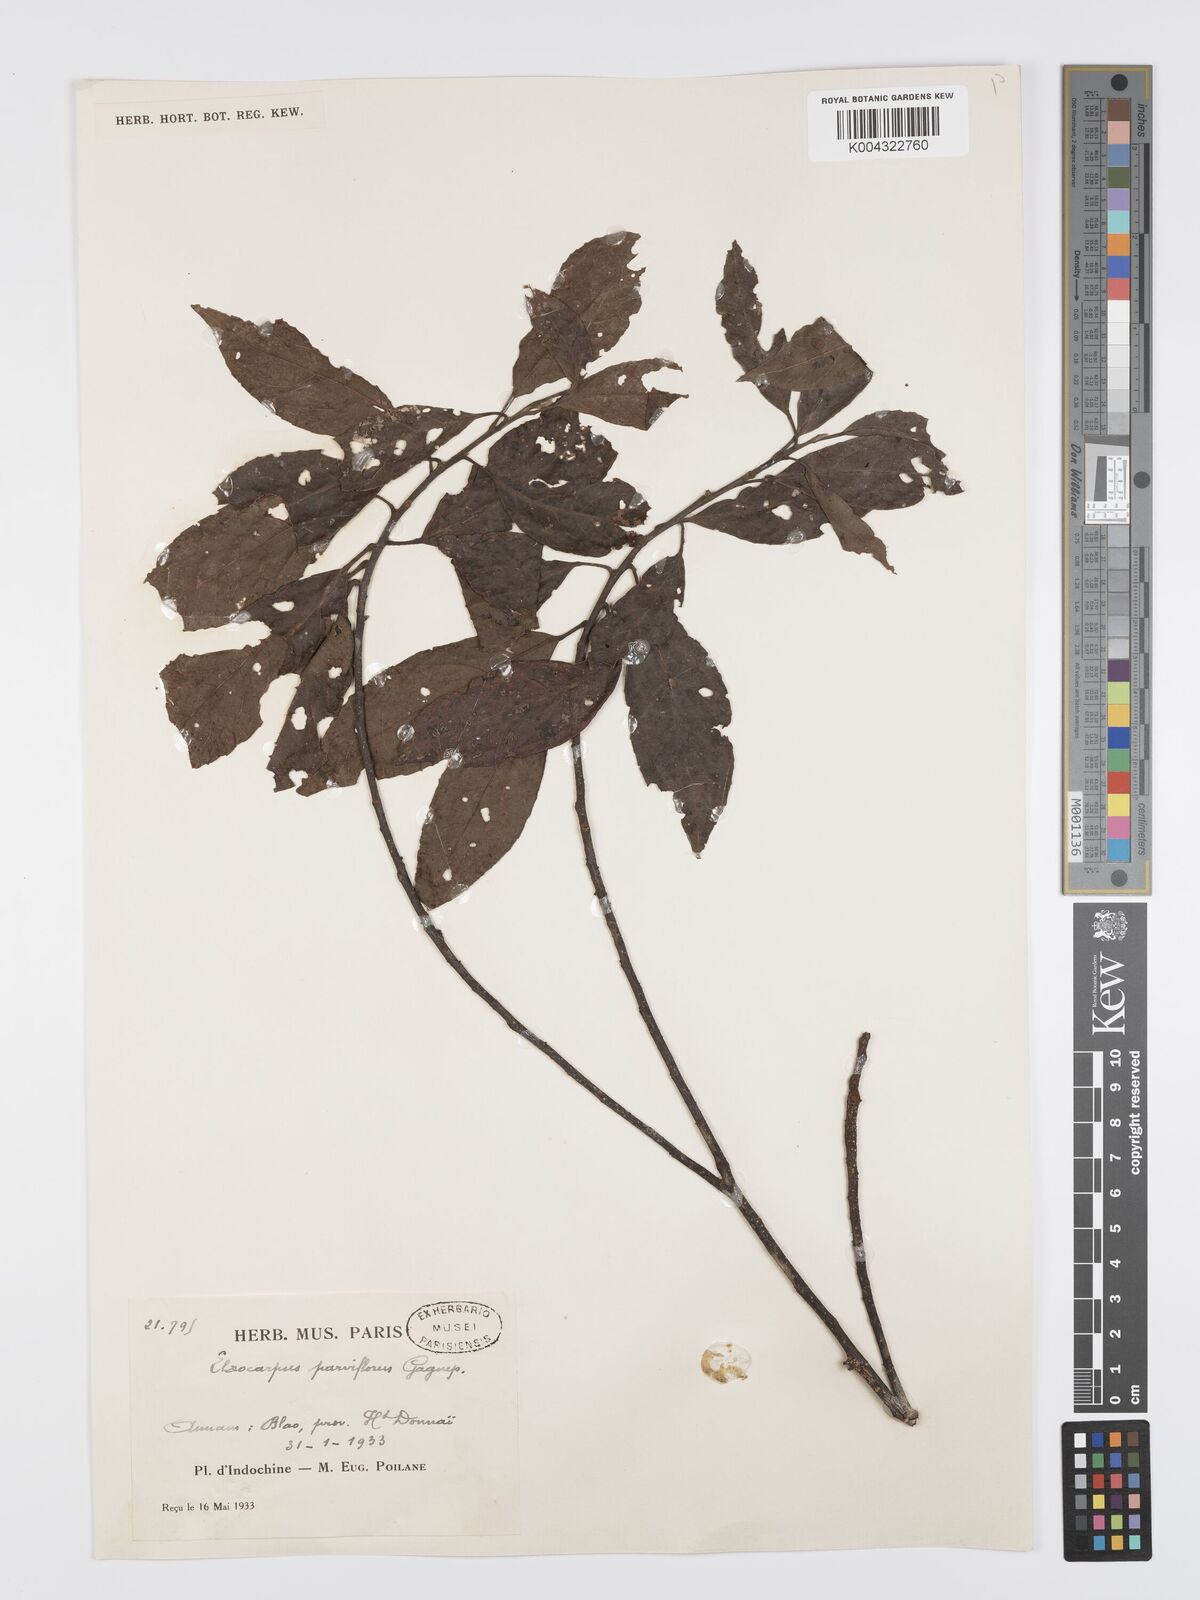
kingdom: Plantae
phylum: Tracheophyta
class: Magnoliopsida
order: Oxalidales
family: Elaeocarpaceae
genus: Elaeocarpus
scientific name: Elaeocarpus
